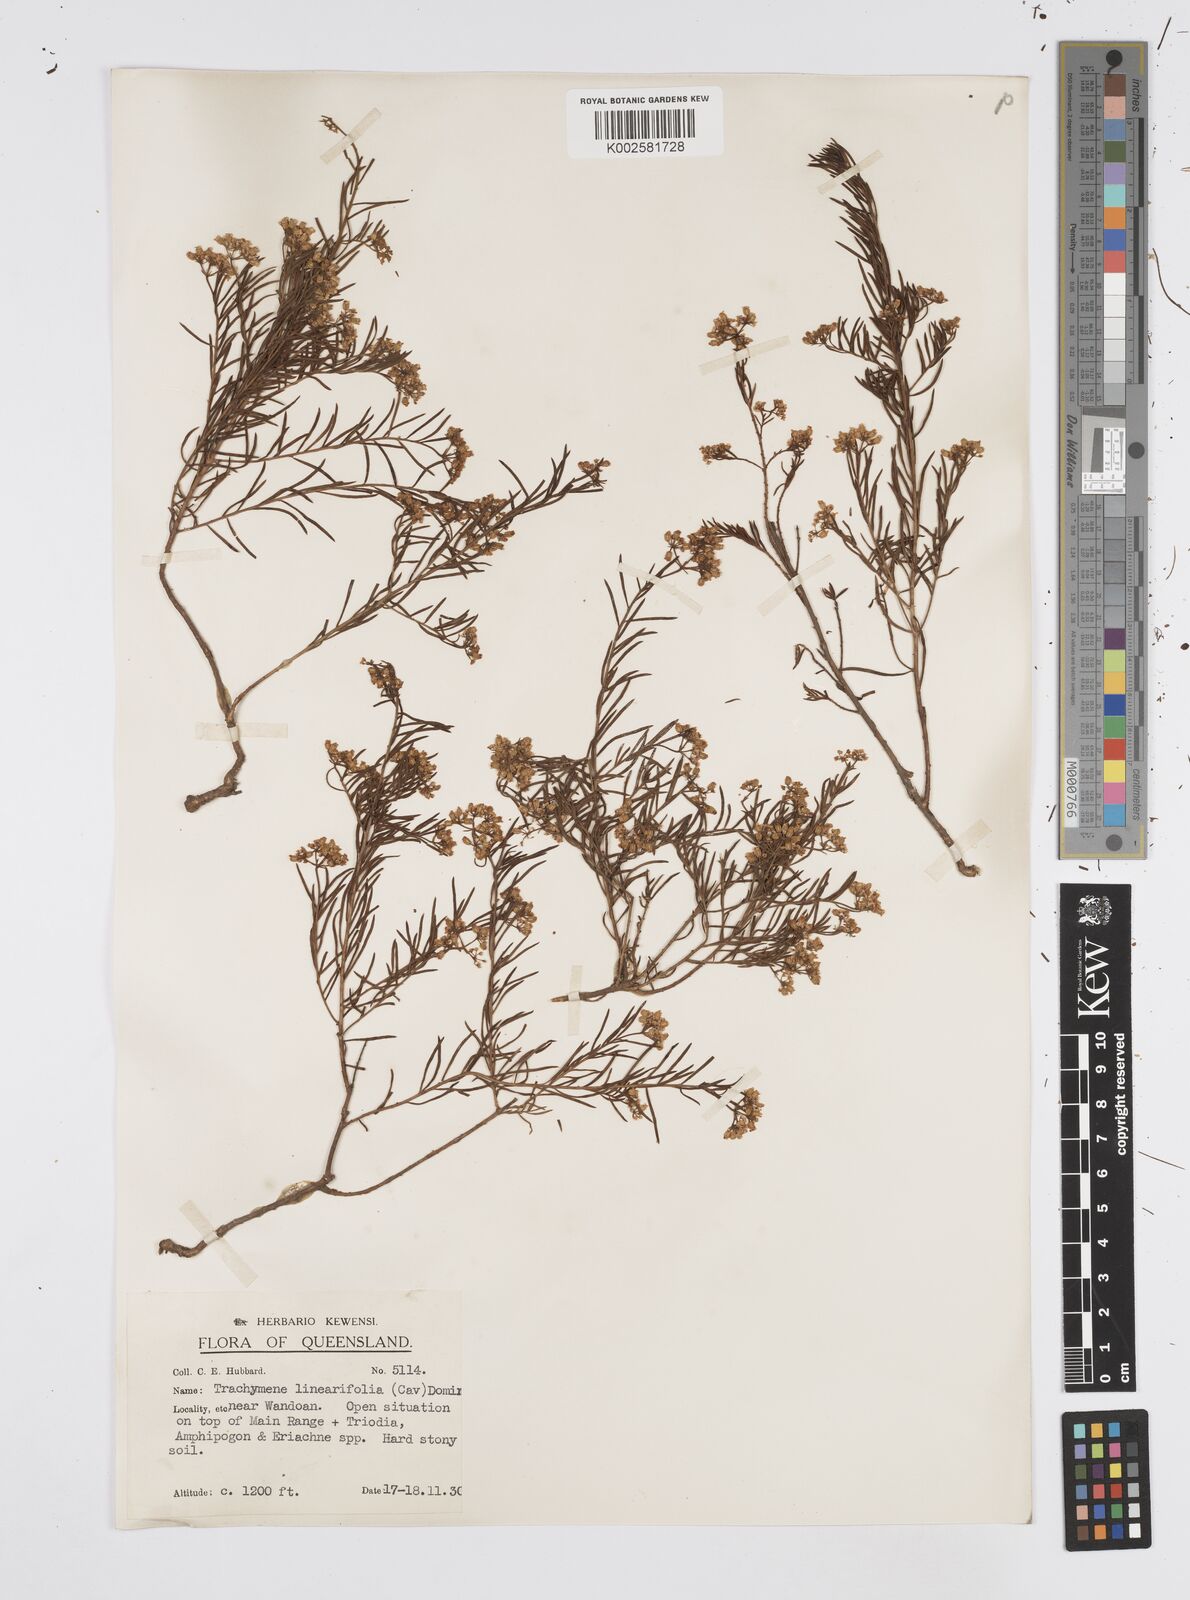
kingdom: Plantae
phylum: Tracheophyta
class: Magnoliopsida
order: Apiales
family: Apiaceae
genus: Platysace
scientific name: Platysace ericoides
